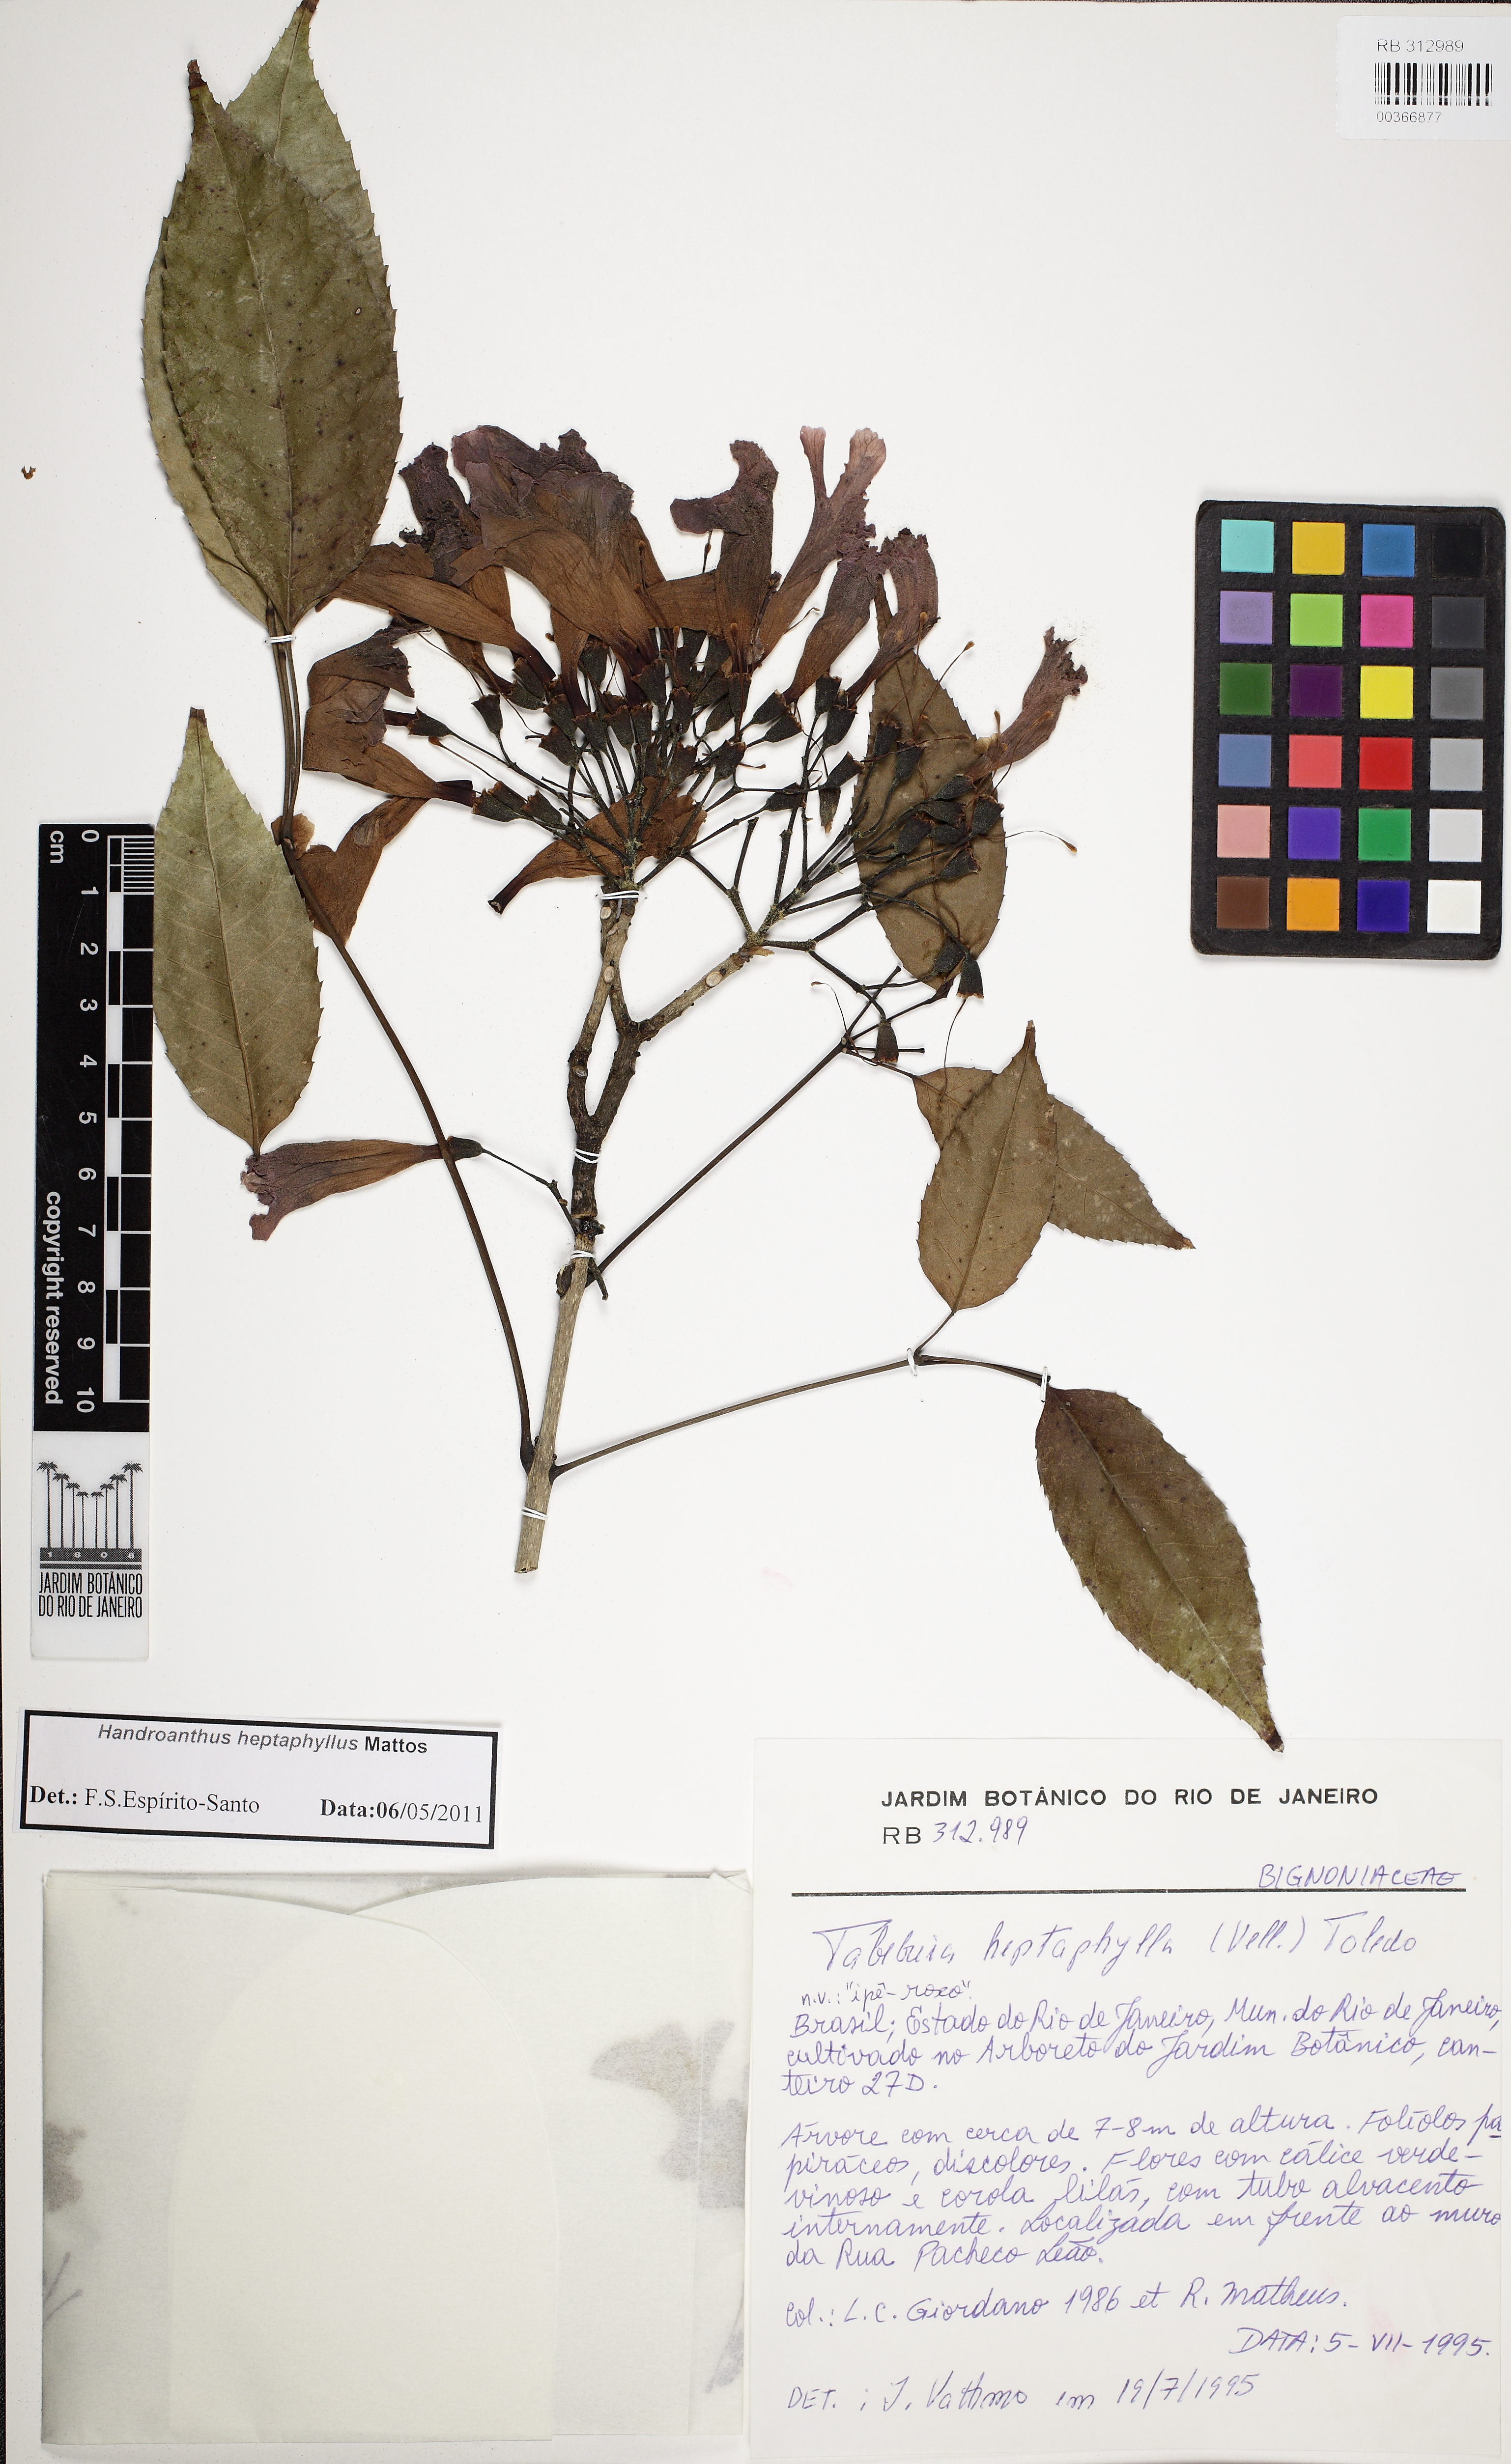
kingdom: Plantae
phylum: Tracheophyta
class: Magnoliopsida
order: Lamiales
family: Bignoniaceae
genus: Handroanthus
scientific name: Handroanthus heptaphyllus
